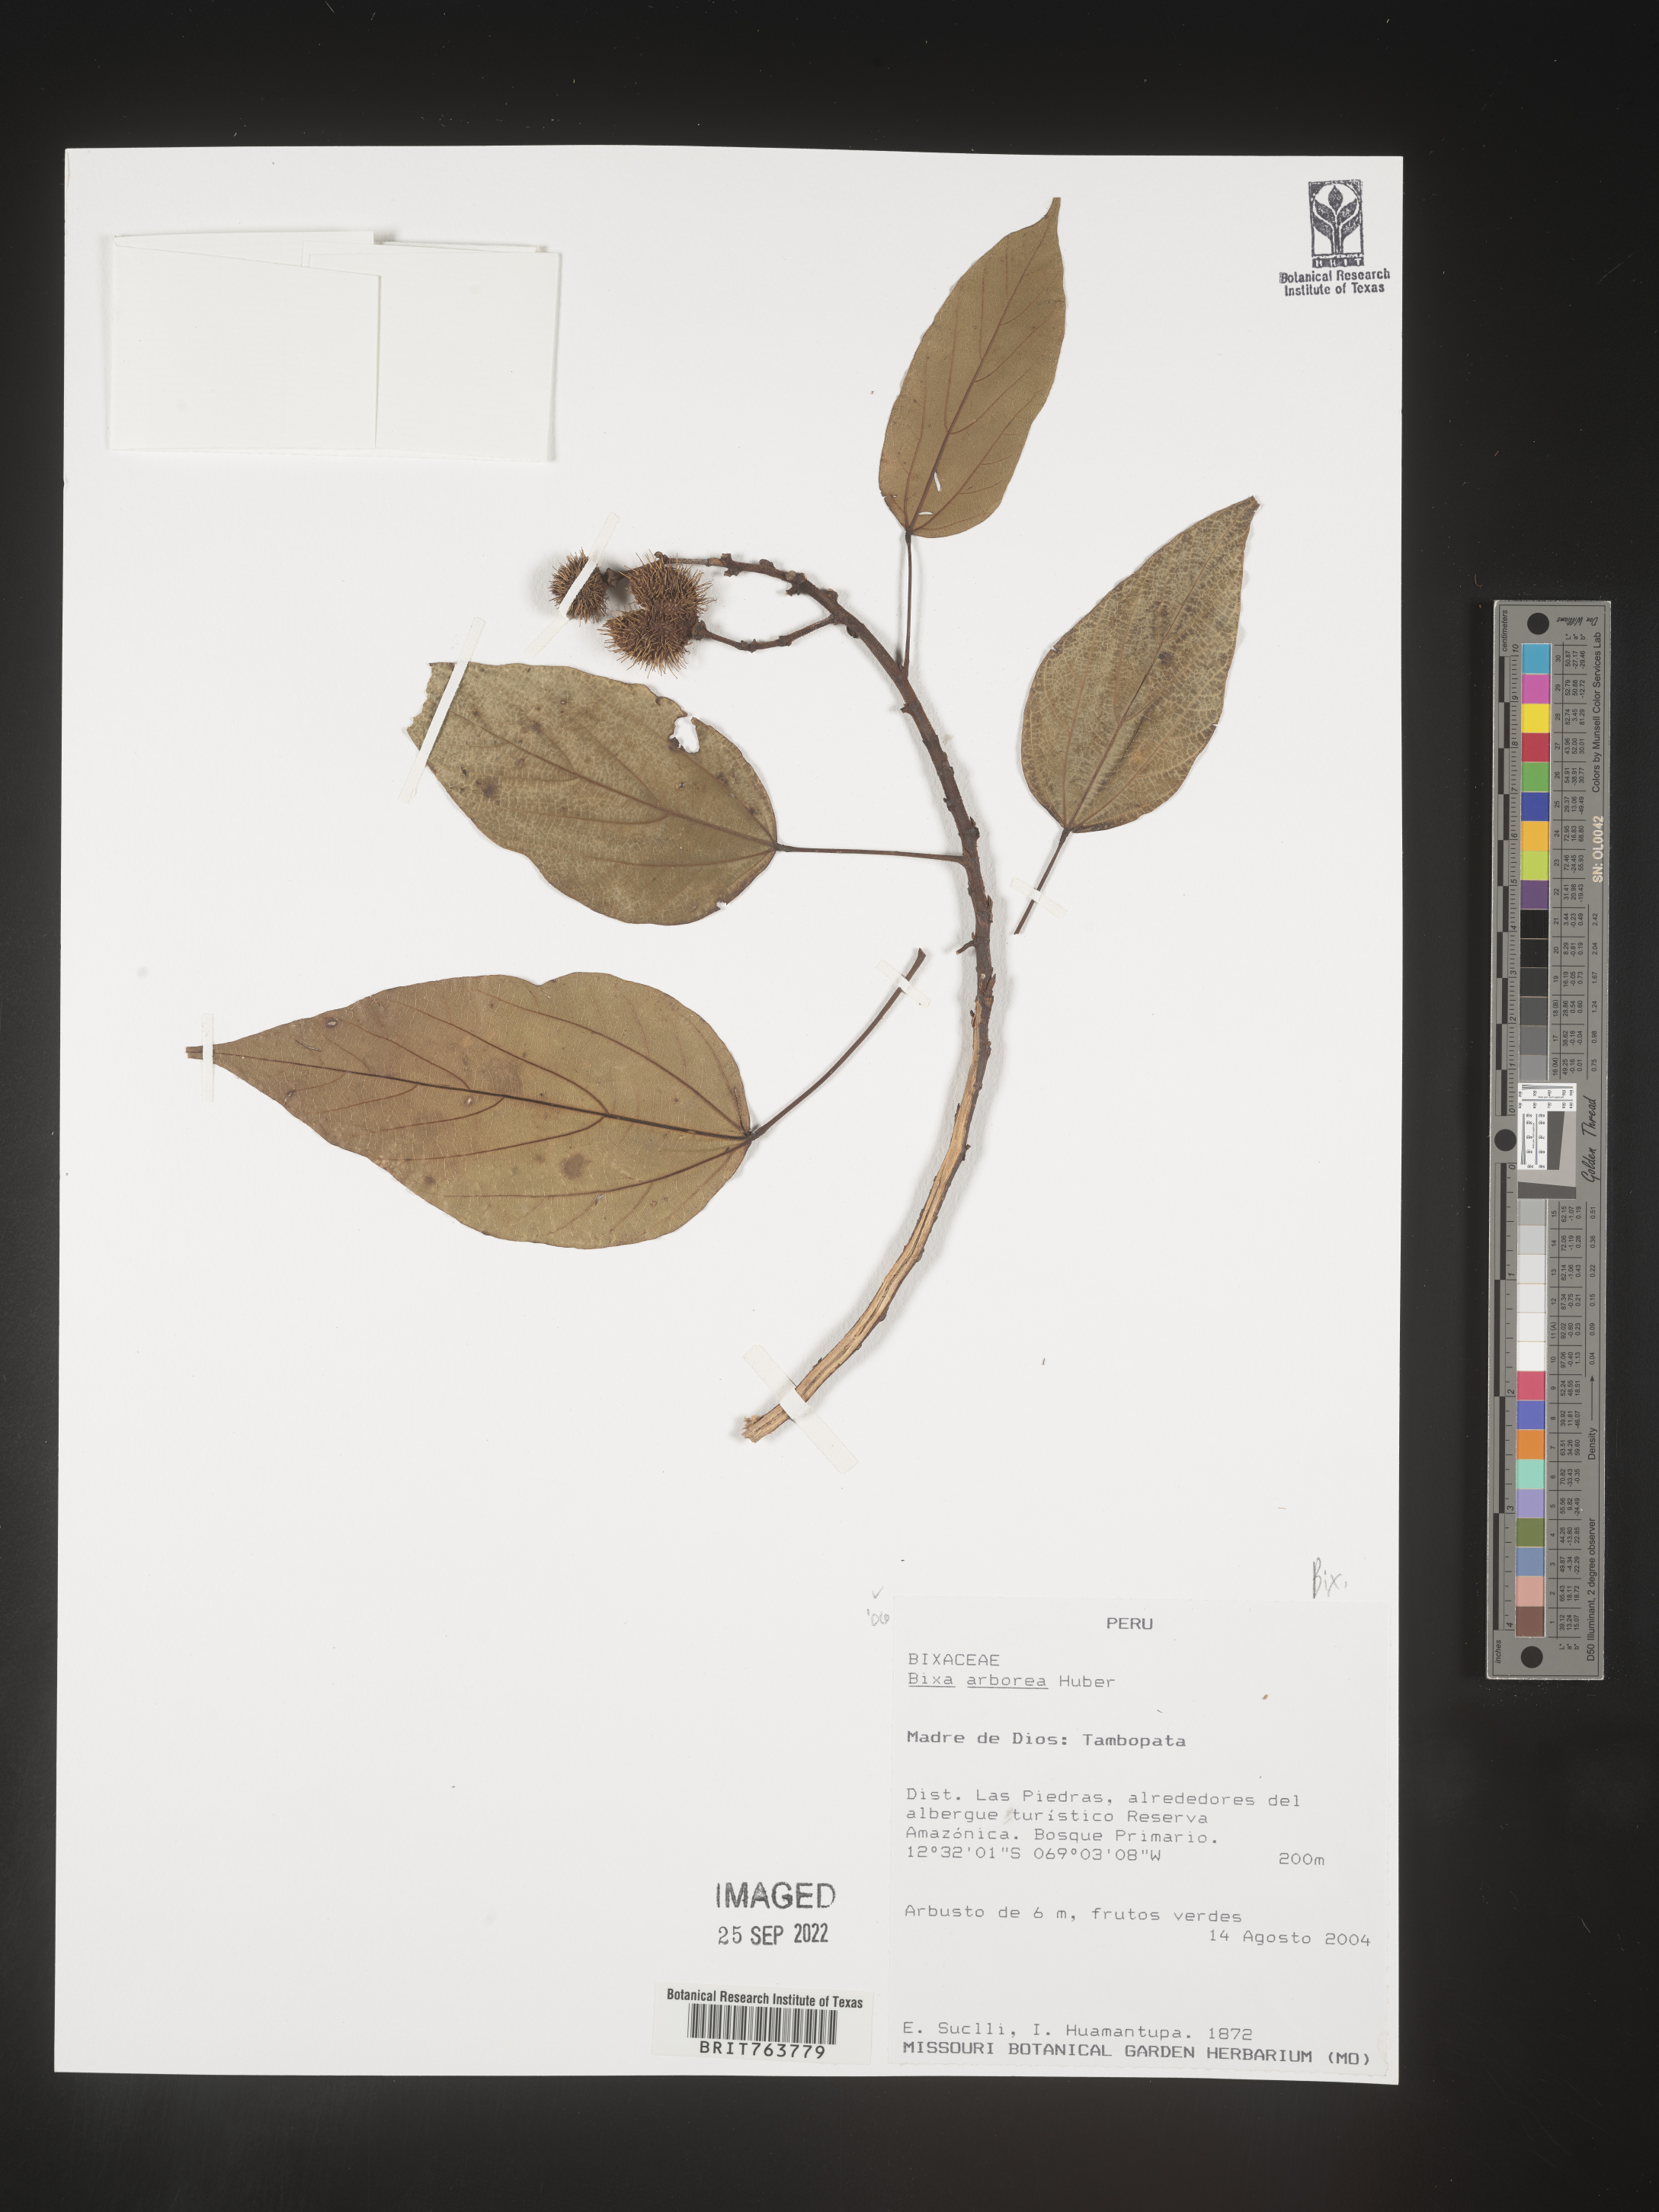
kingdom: Plantae
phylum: Tracheophyta
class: Magnoliopsida
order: Malvales
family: Bixaceae
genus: Bixa
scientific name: Bixa
